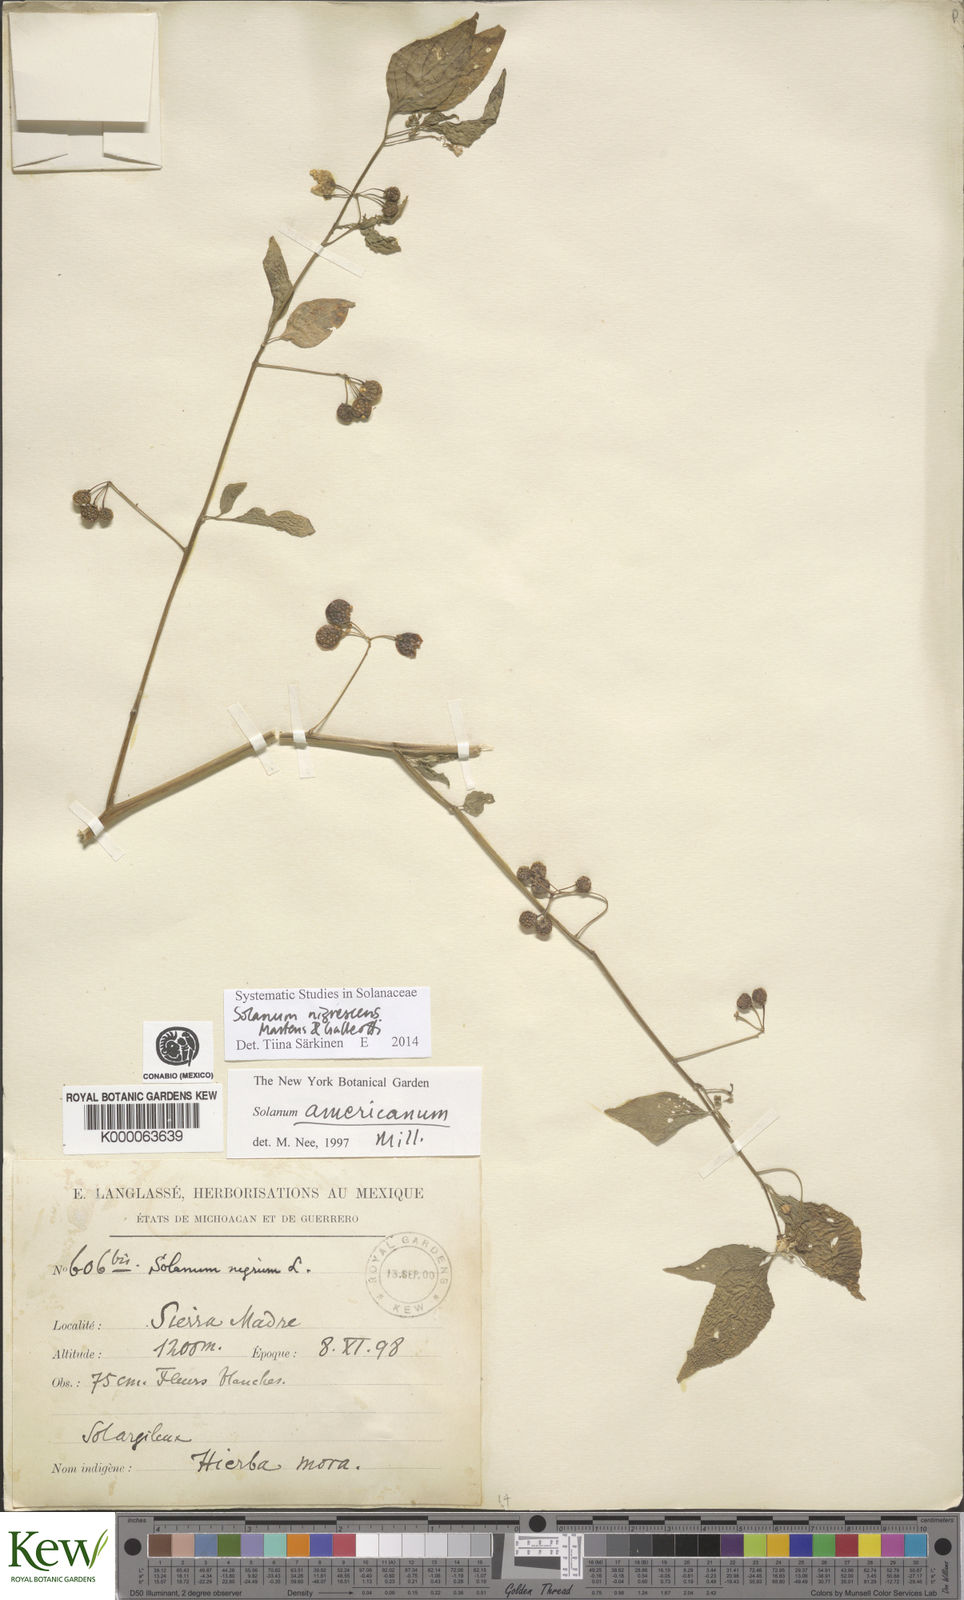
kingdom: Plantae
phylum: Tracheophyta
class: Magnoliopsida
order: Solanales
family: Solanaceae
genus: Solanum
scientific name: Solanum americanum
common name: American black nightshade
